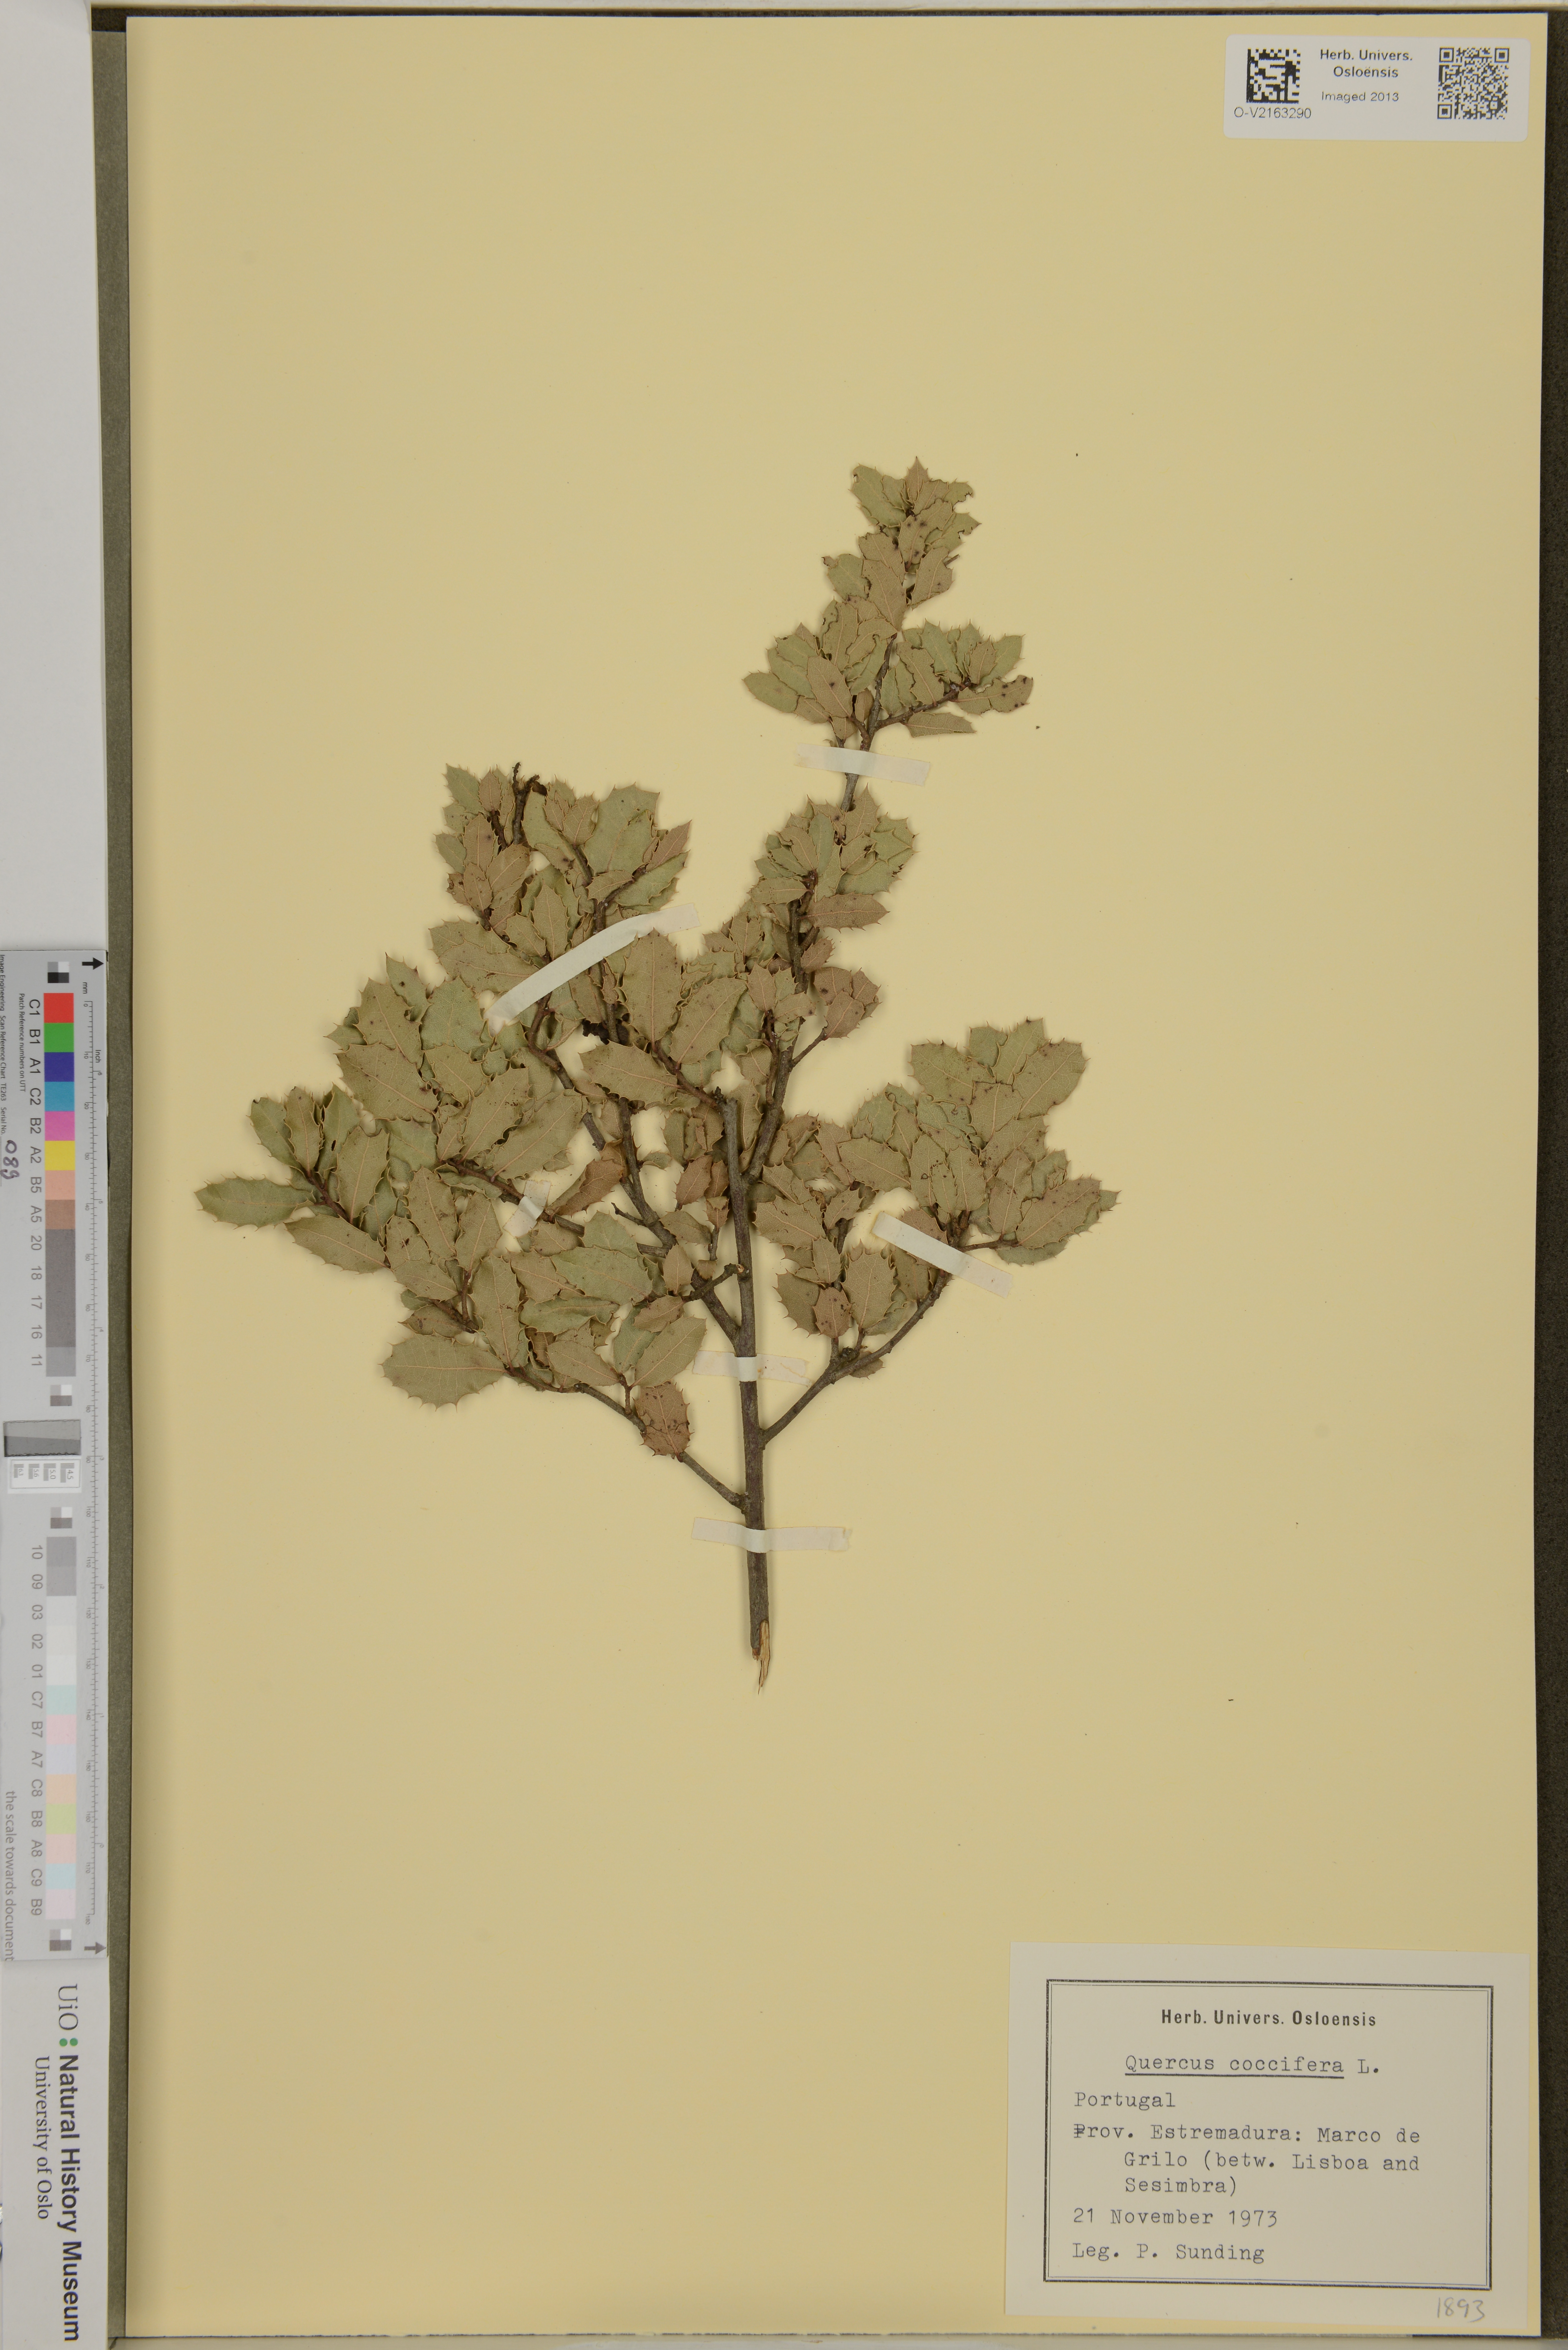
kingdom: Plantae
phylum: Tracheophyta
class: Magnoliopsida
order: Fagales
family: Fagaceae
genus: Quercus
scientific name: Quercus coccifera
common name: Kermes oak
